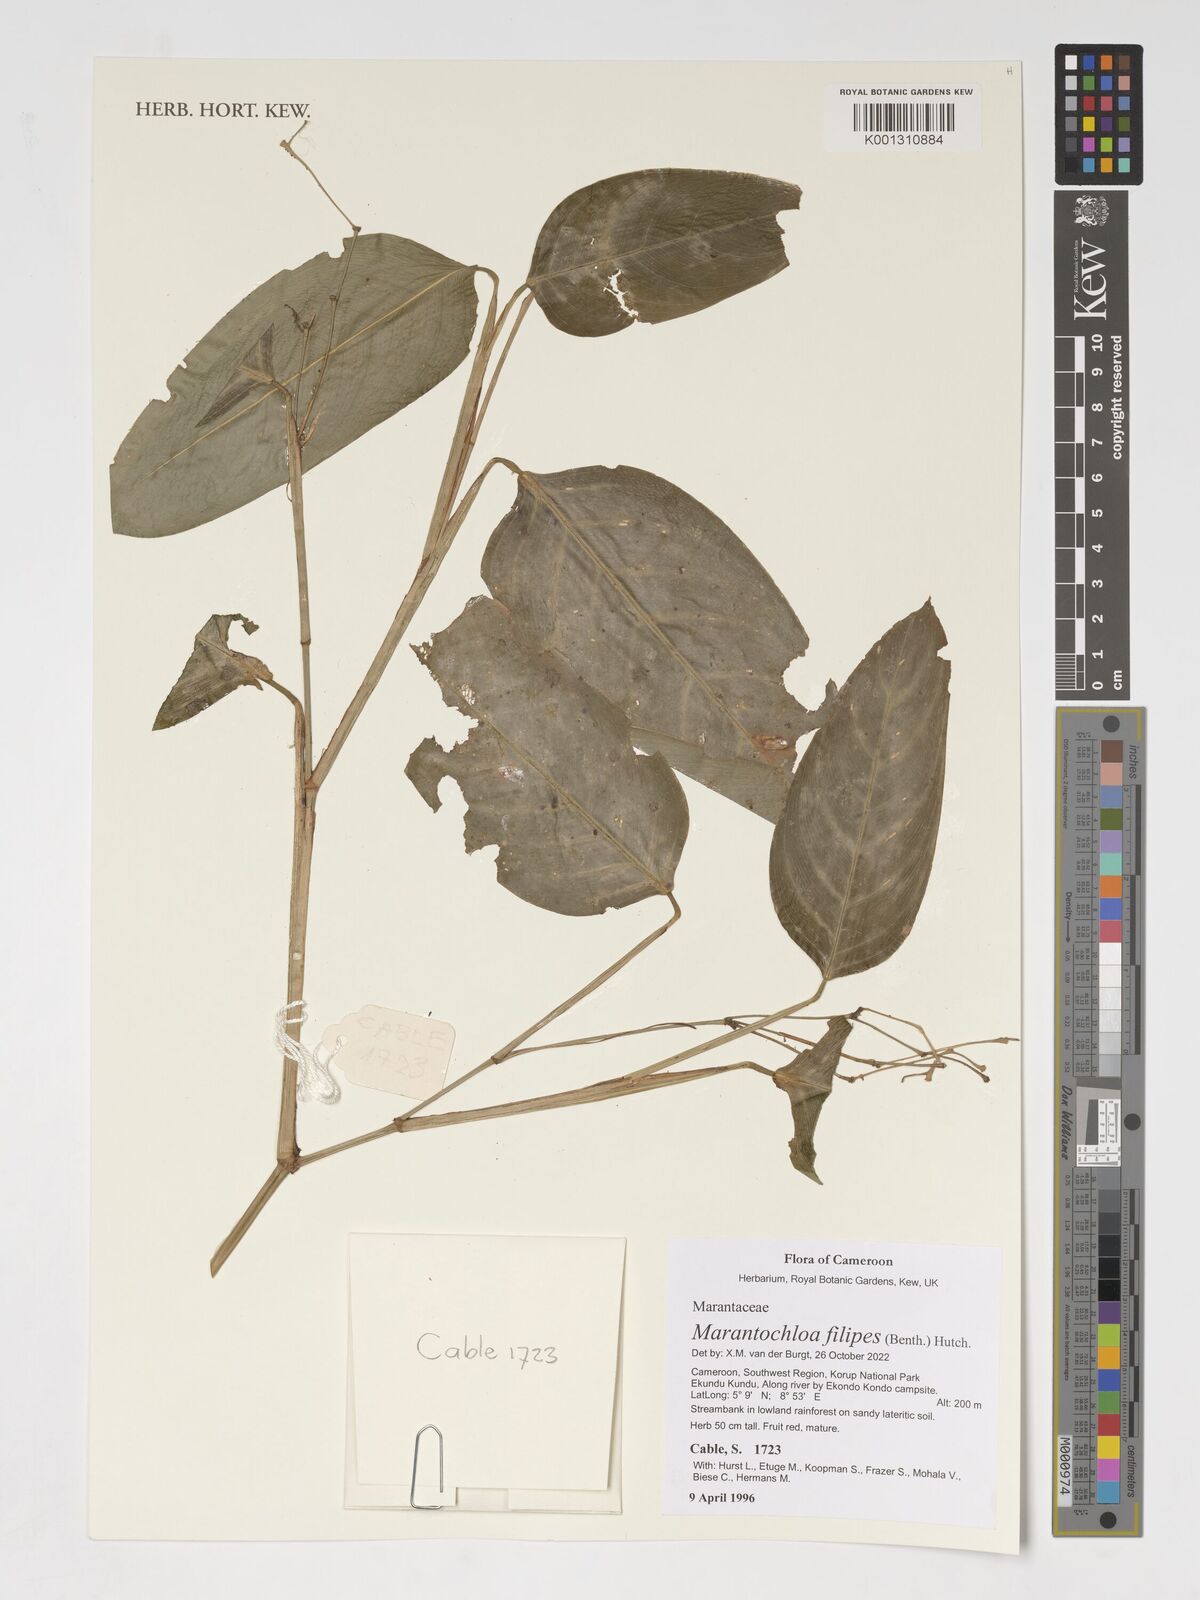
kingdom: Plantae
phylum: Tracheophyta
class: Liliopsida
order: Zingiberales
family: Marantaceae
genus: Marantochloa
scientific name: Marantochloa filipes
